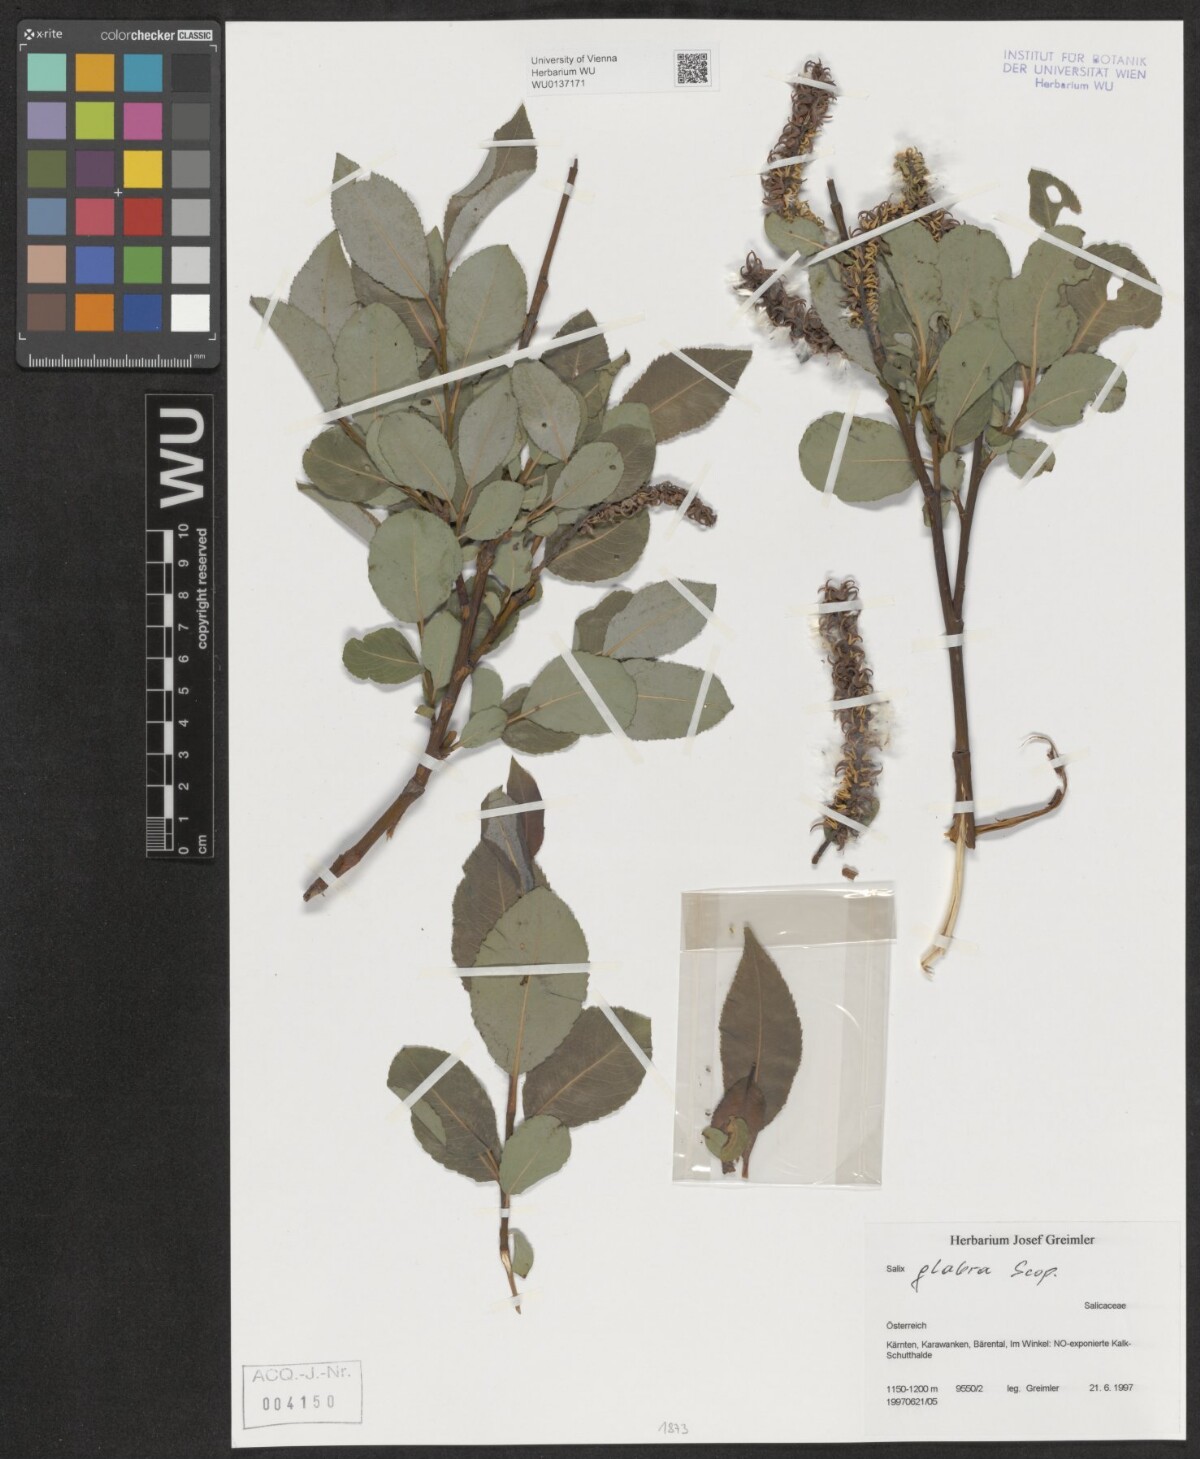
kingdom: Plantae
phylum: Tracheophyta
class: Magnoliopsida
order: Malpighiales
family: Salicaceae
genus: Salix
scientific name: Salix glabra
